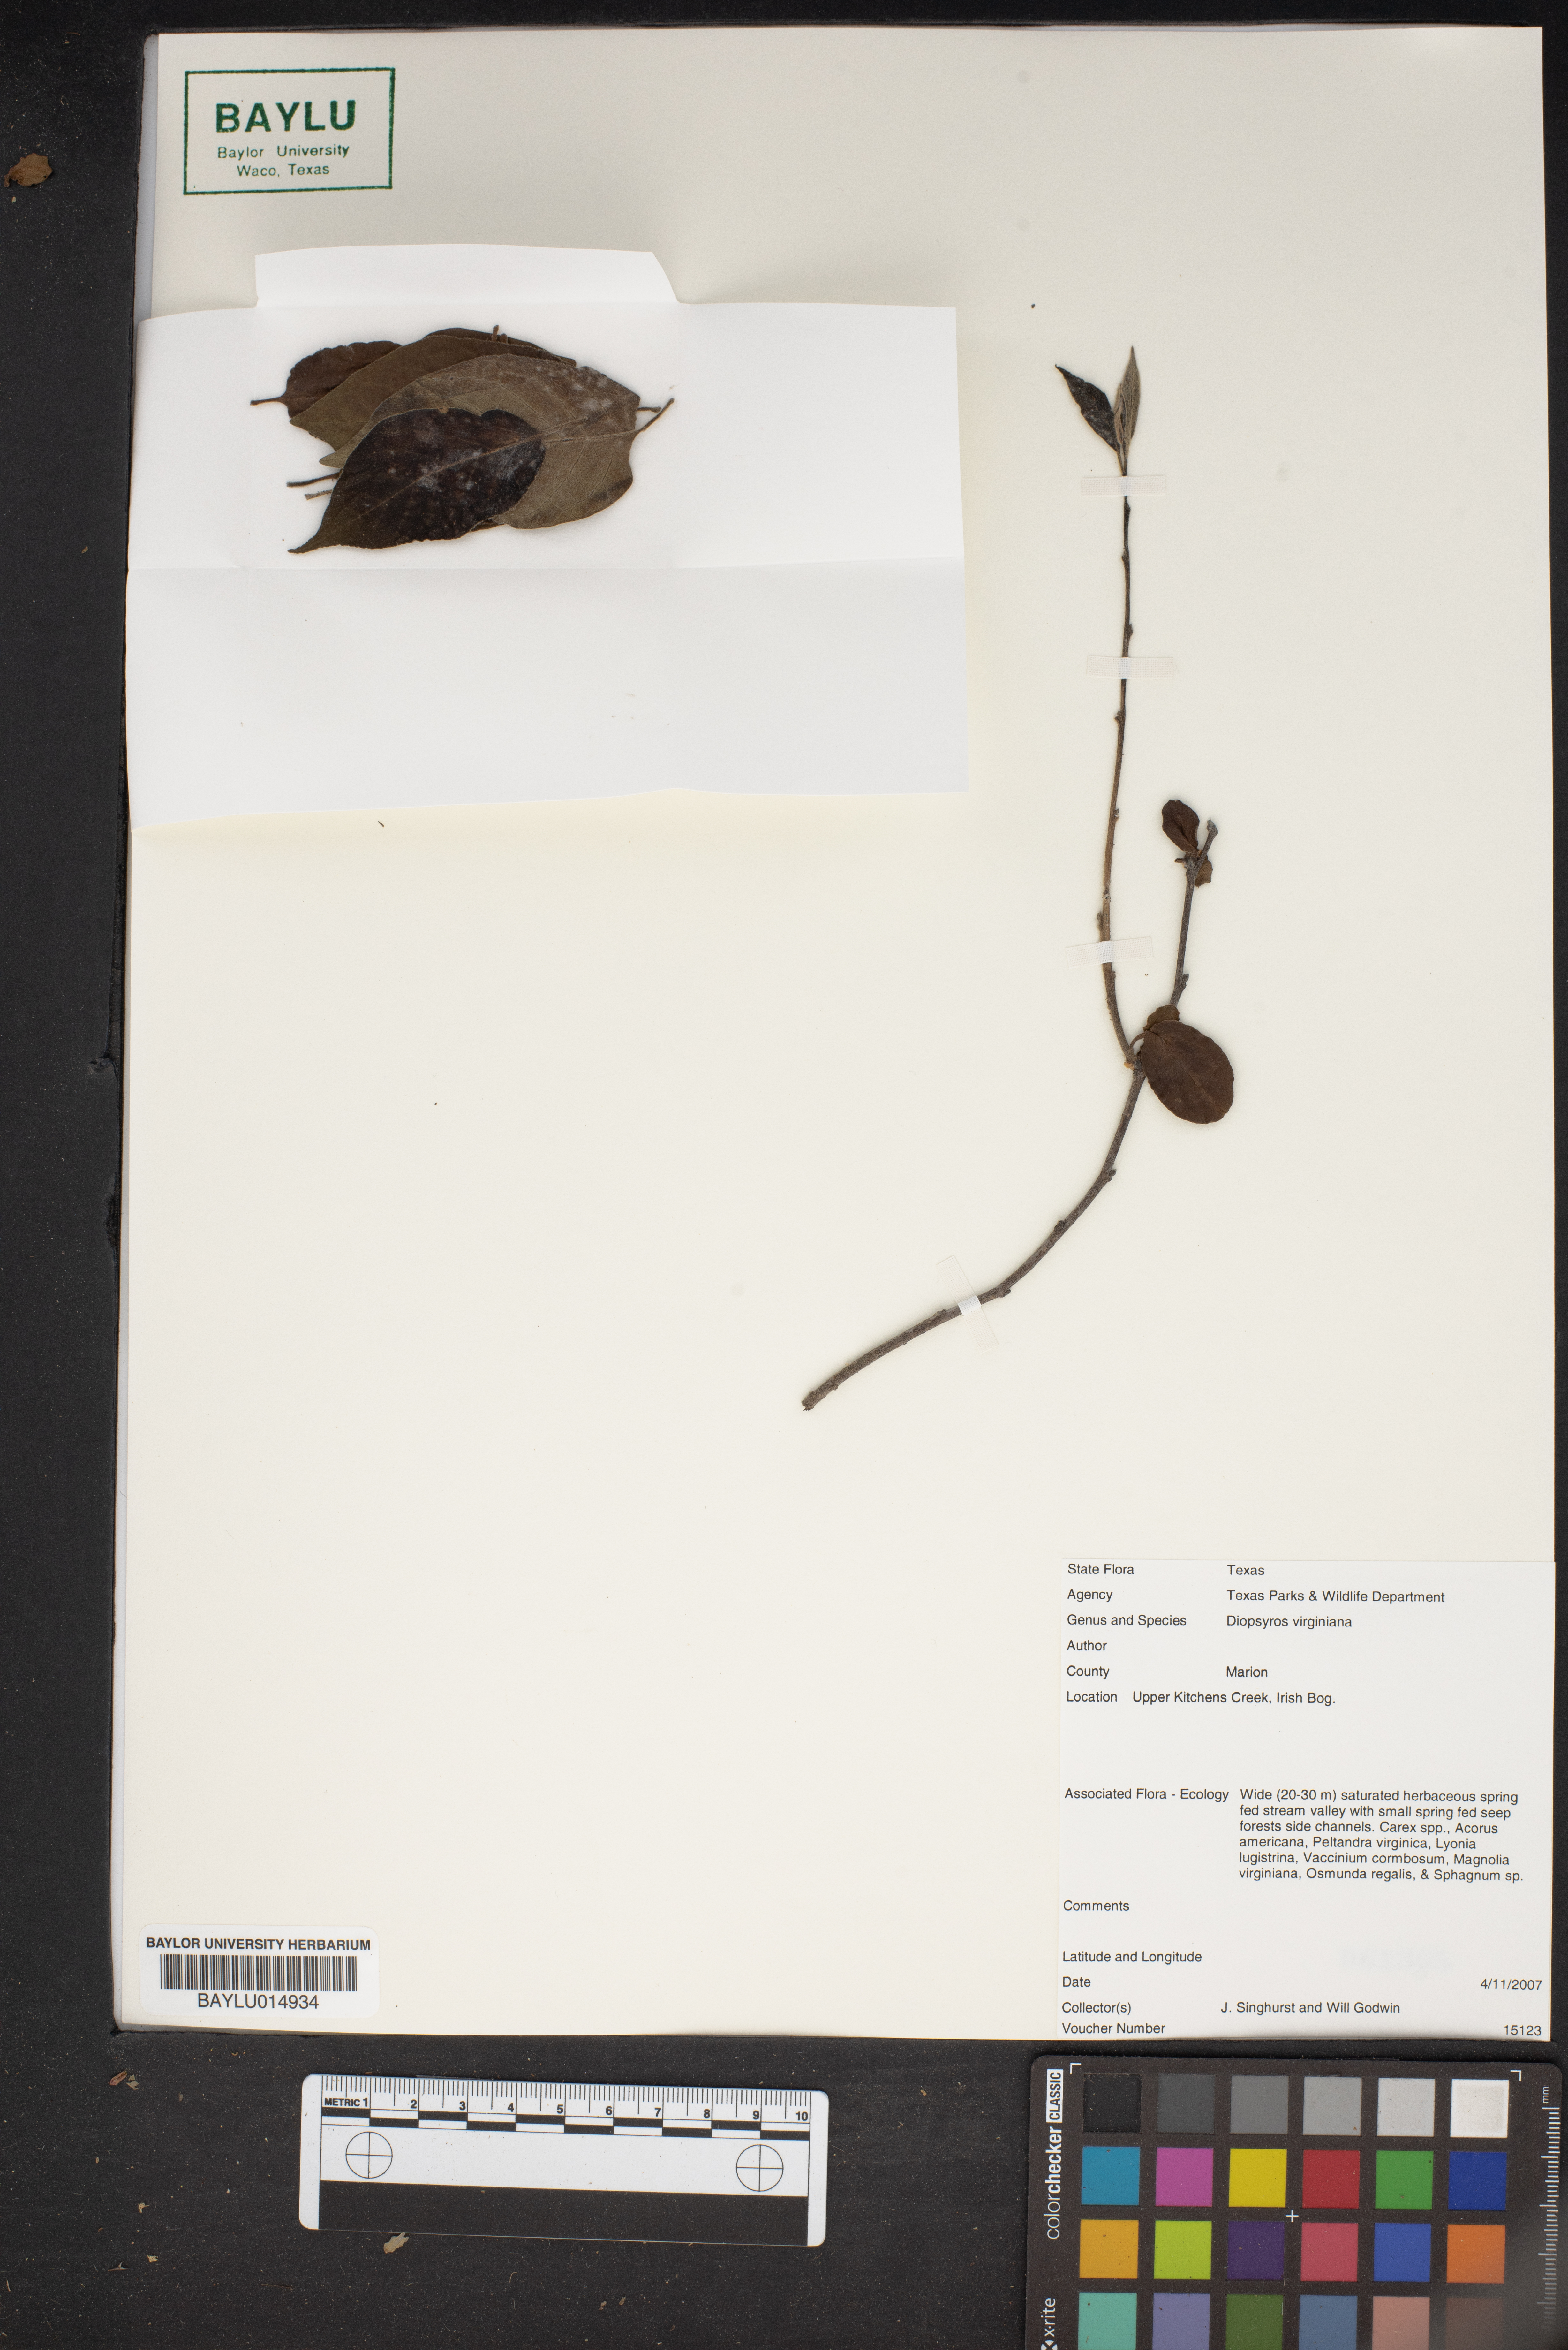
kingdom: Plantae
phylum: Tracheophyta
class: Magnoliopsida
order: Ericales
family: Ebenaceae
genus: Diospyros
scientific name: Diospyros virginiana
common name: Persimmon
